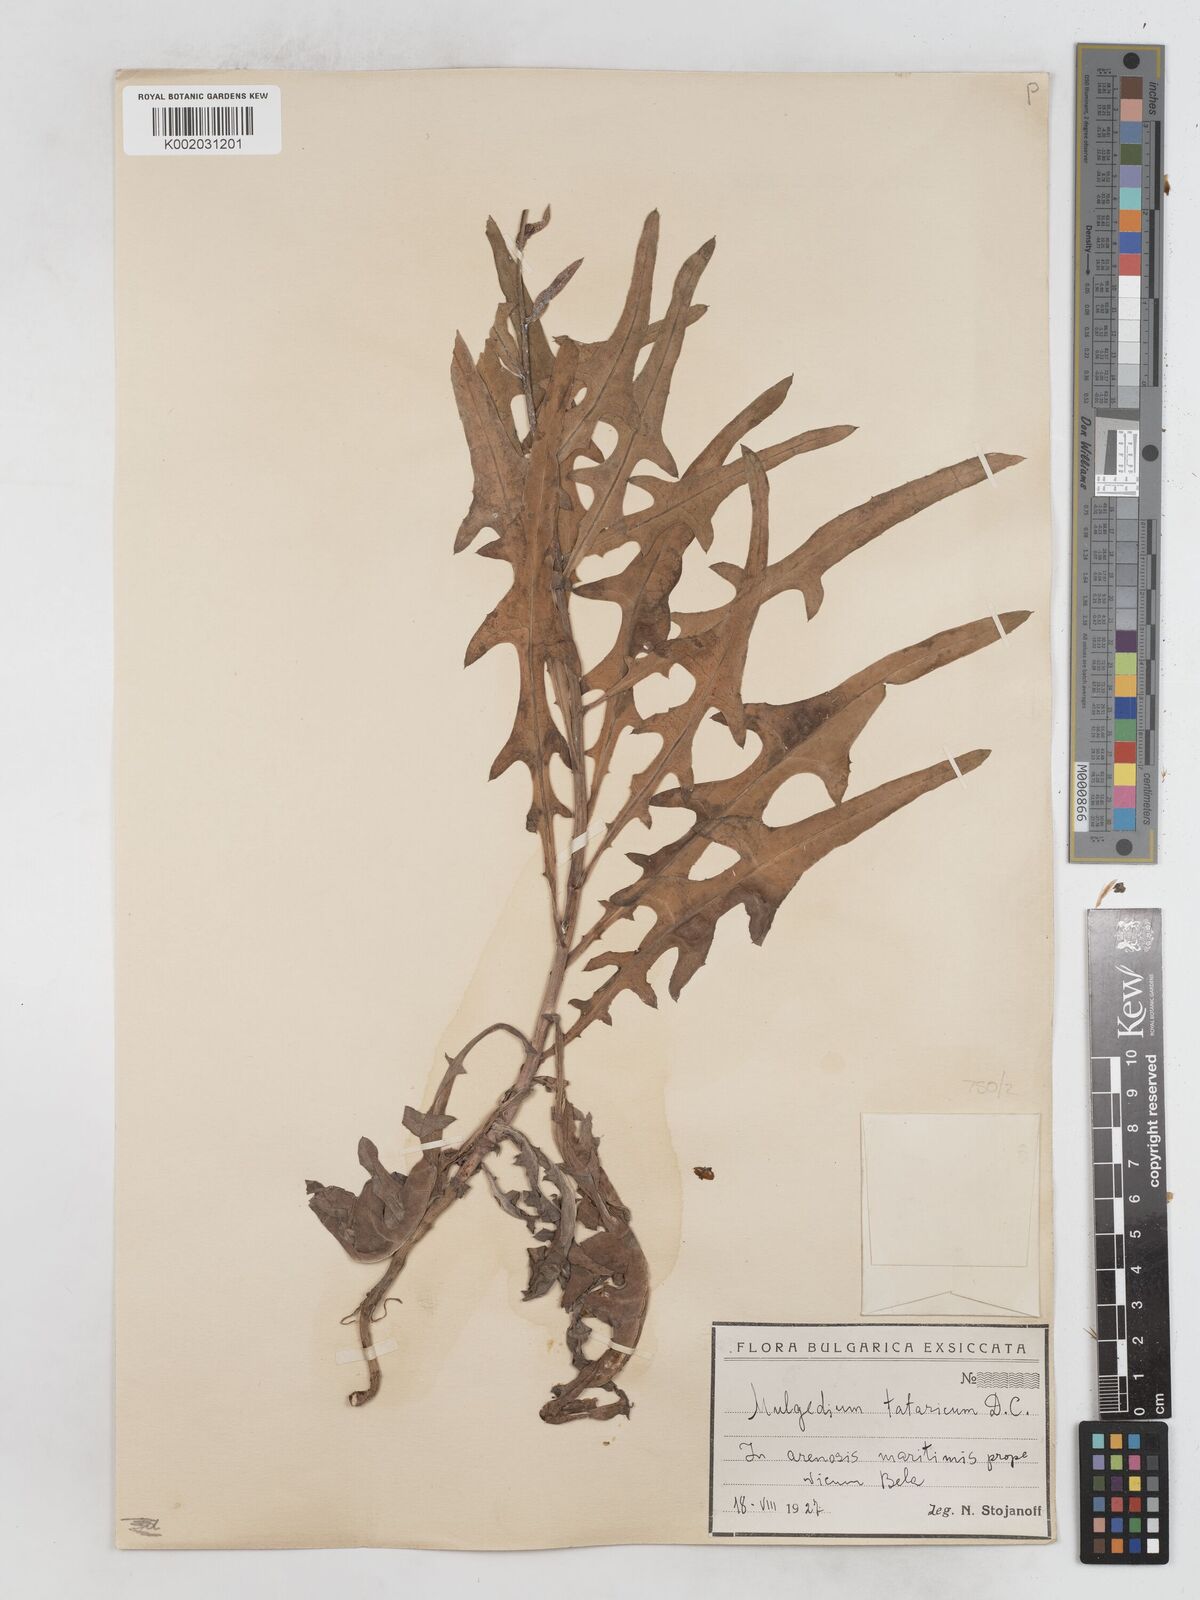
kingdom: Plantae
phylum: Tracheophyta
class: Magnoliopsida
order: Asterales
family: Asteraceae
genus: Lactuca
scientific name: Lactuca tatarica
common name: Blue lettuce
